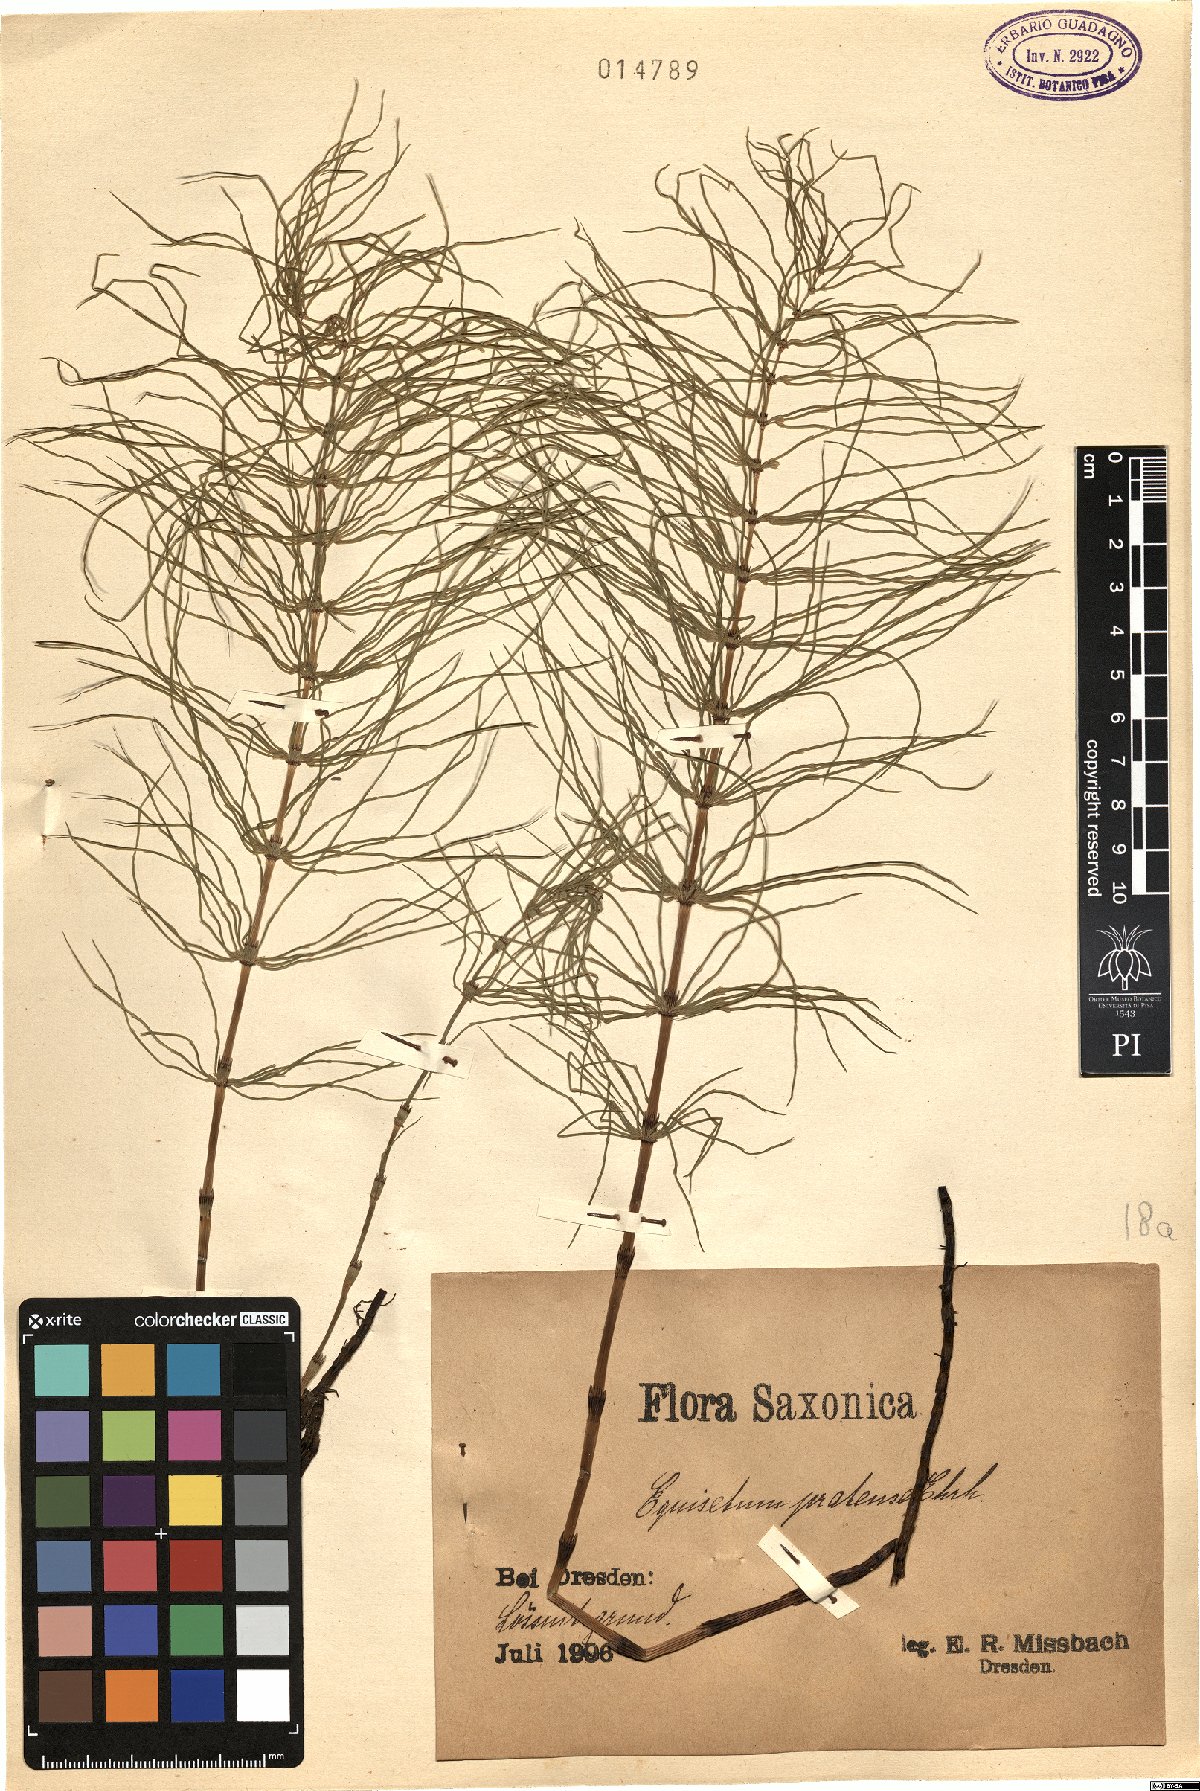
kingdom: Plantae
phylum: Tracheophyta
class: Polypodiopsida
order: Equisetales
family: Equisetaceae
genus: Equisetum
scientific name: Equisetum pratense
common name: Meadow horsetail
